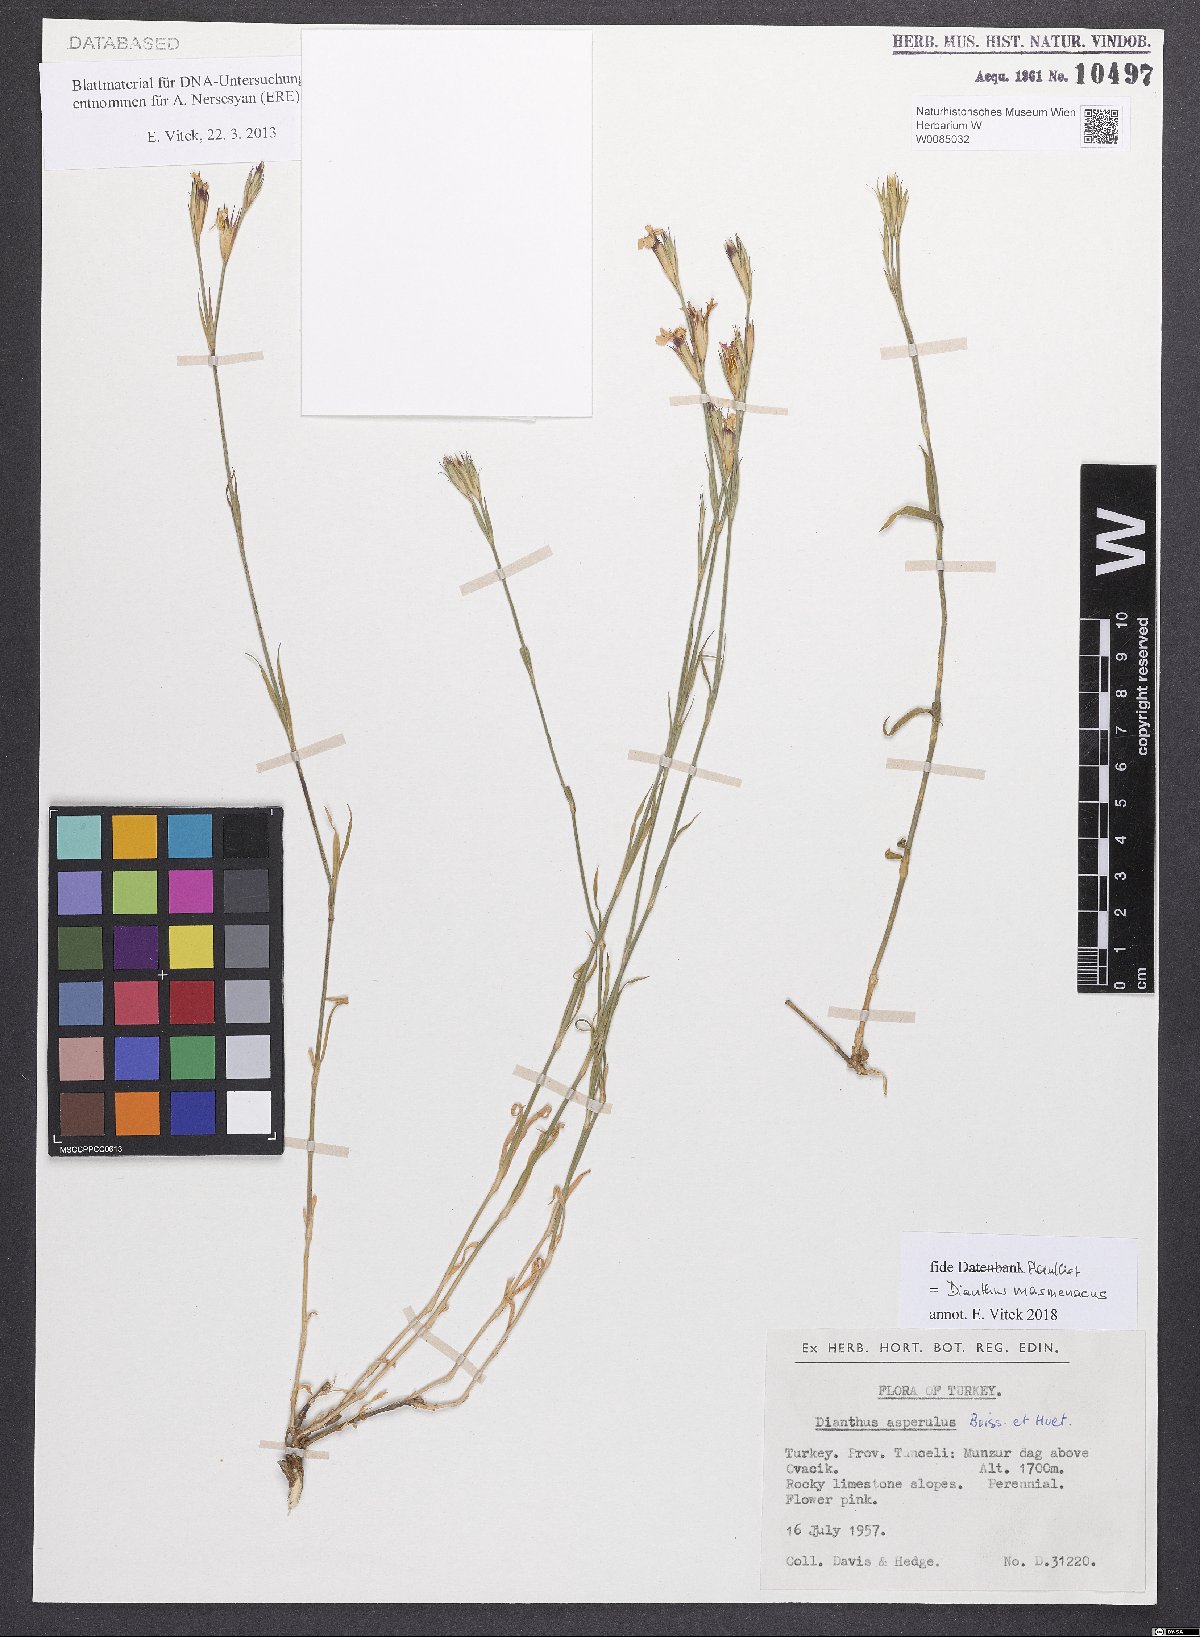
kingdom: Plantae
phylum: Tracheophyta
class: Magnoliopsida
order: Caryophyllales
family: Caryophyllaceae
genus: Dianthus
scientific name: Dianthus masmenaeus
